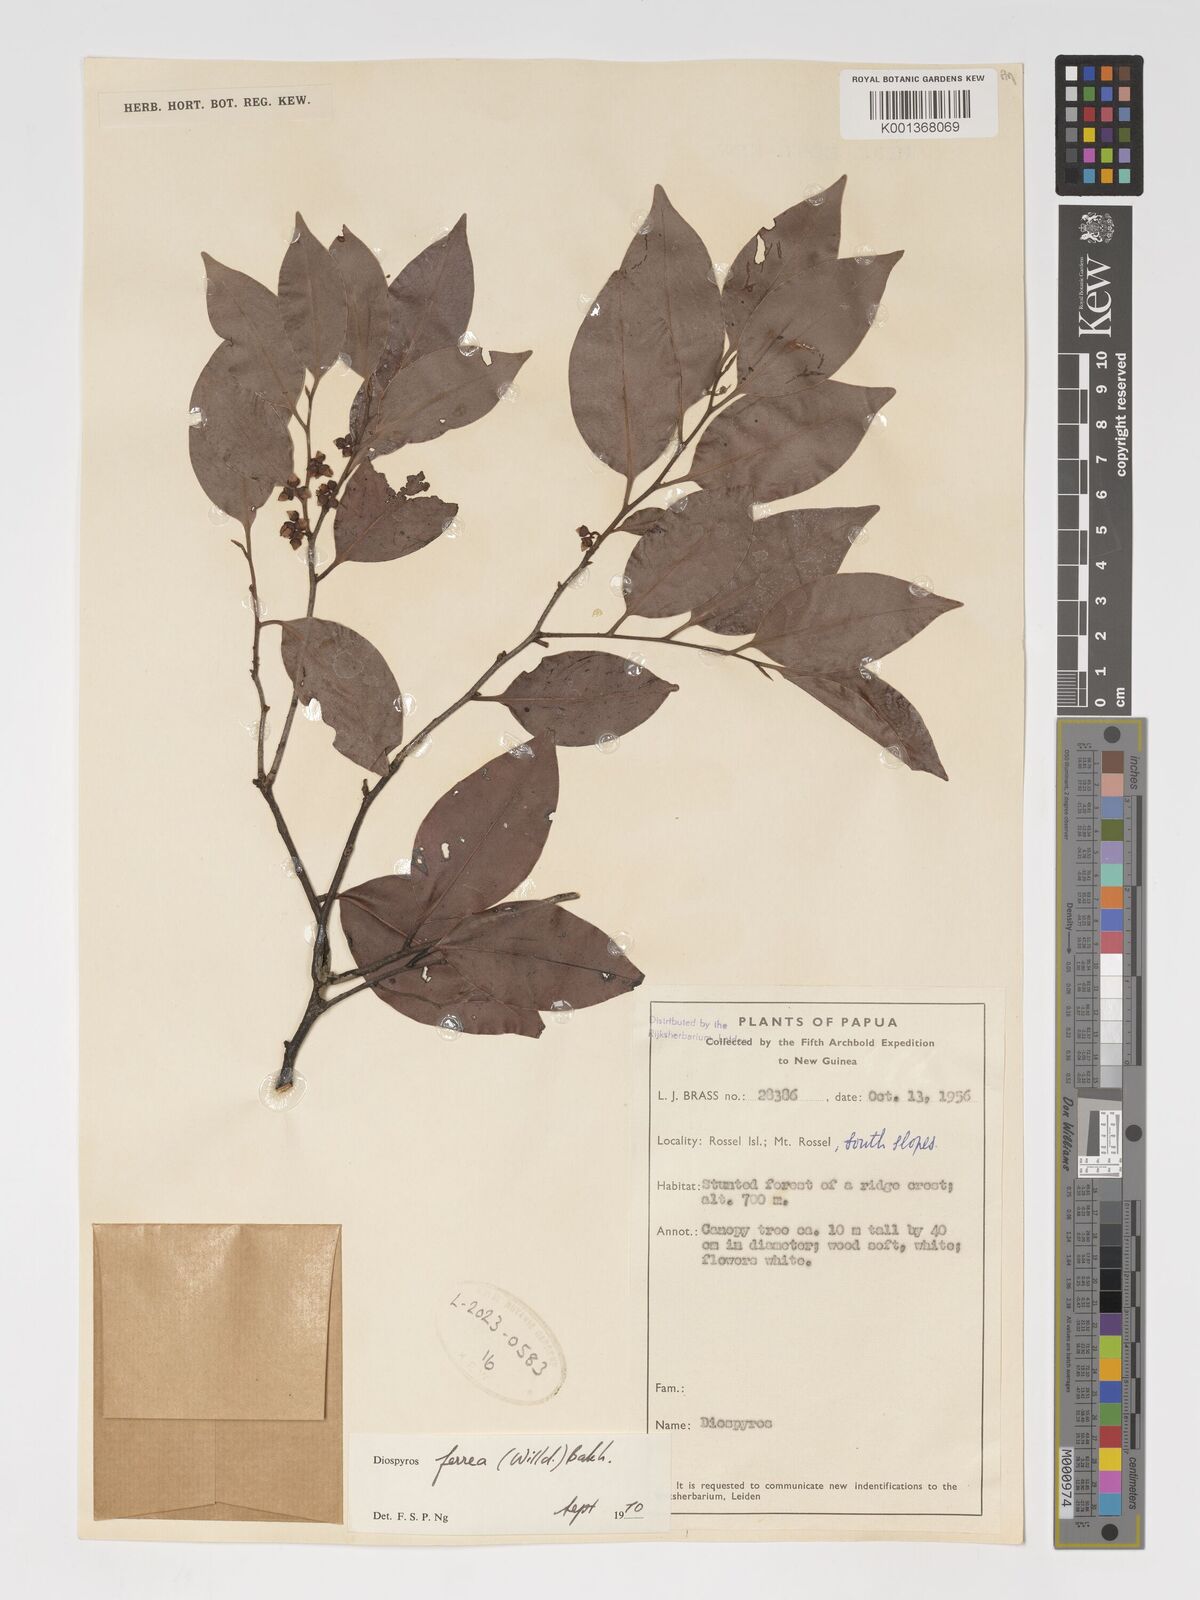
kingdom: Plantae
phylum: Tracheophyta
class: Magnoliopsida
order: Ericales
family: Ebenaceae
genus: Diospyros
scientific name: Diospyros ferrea
